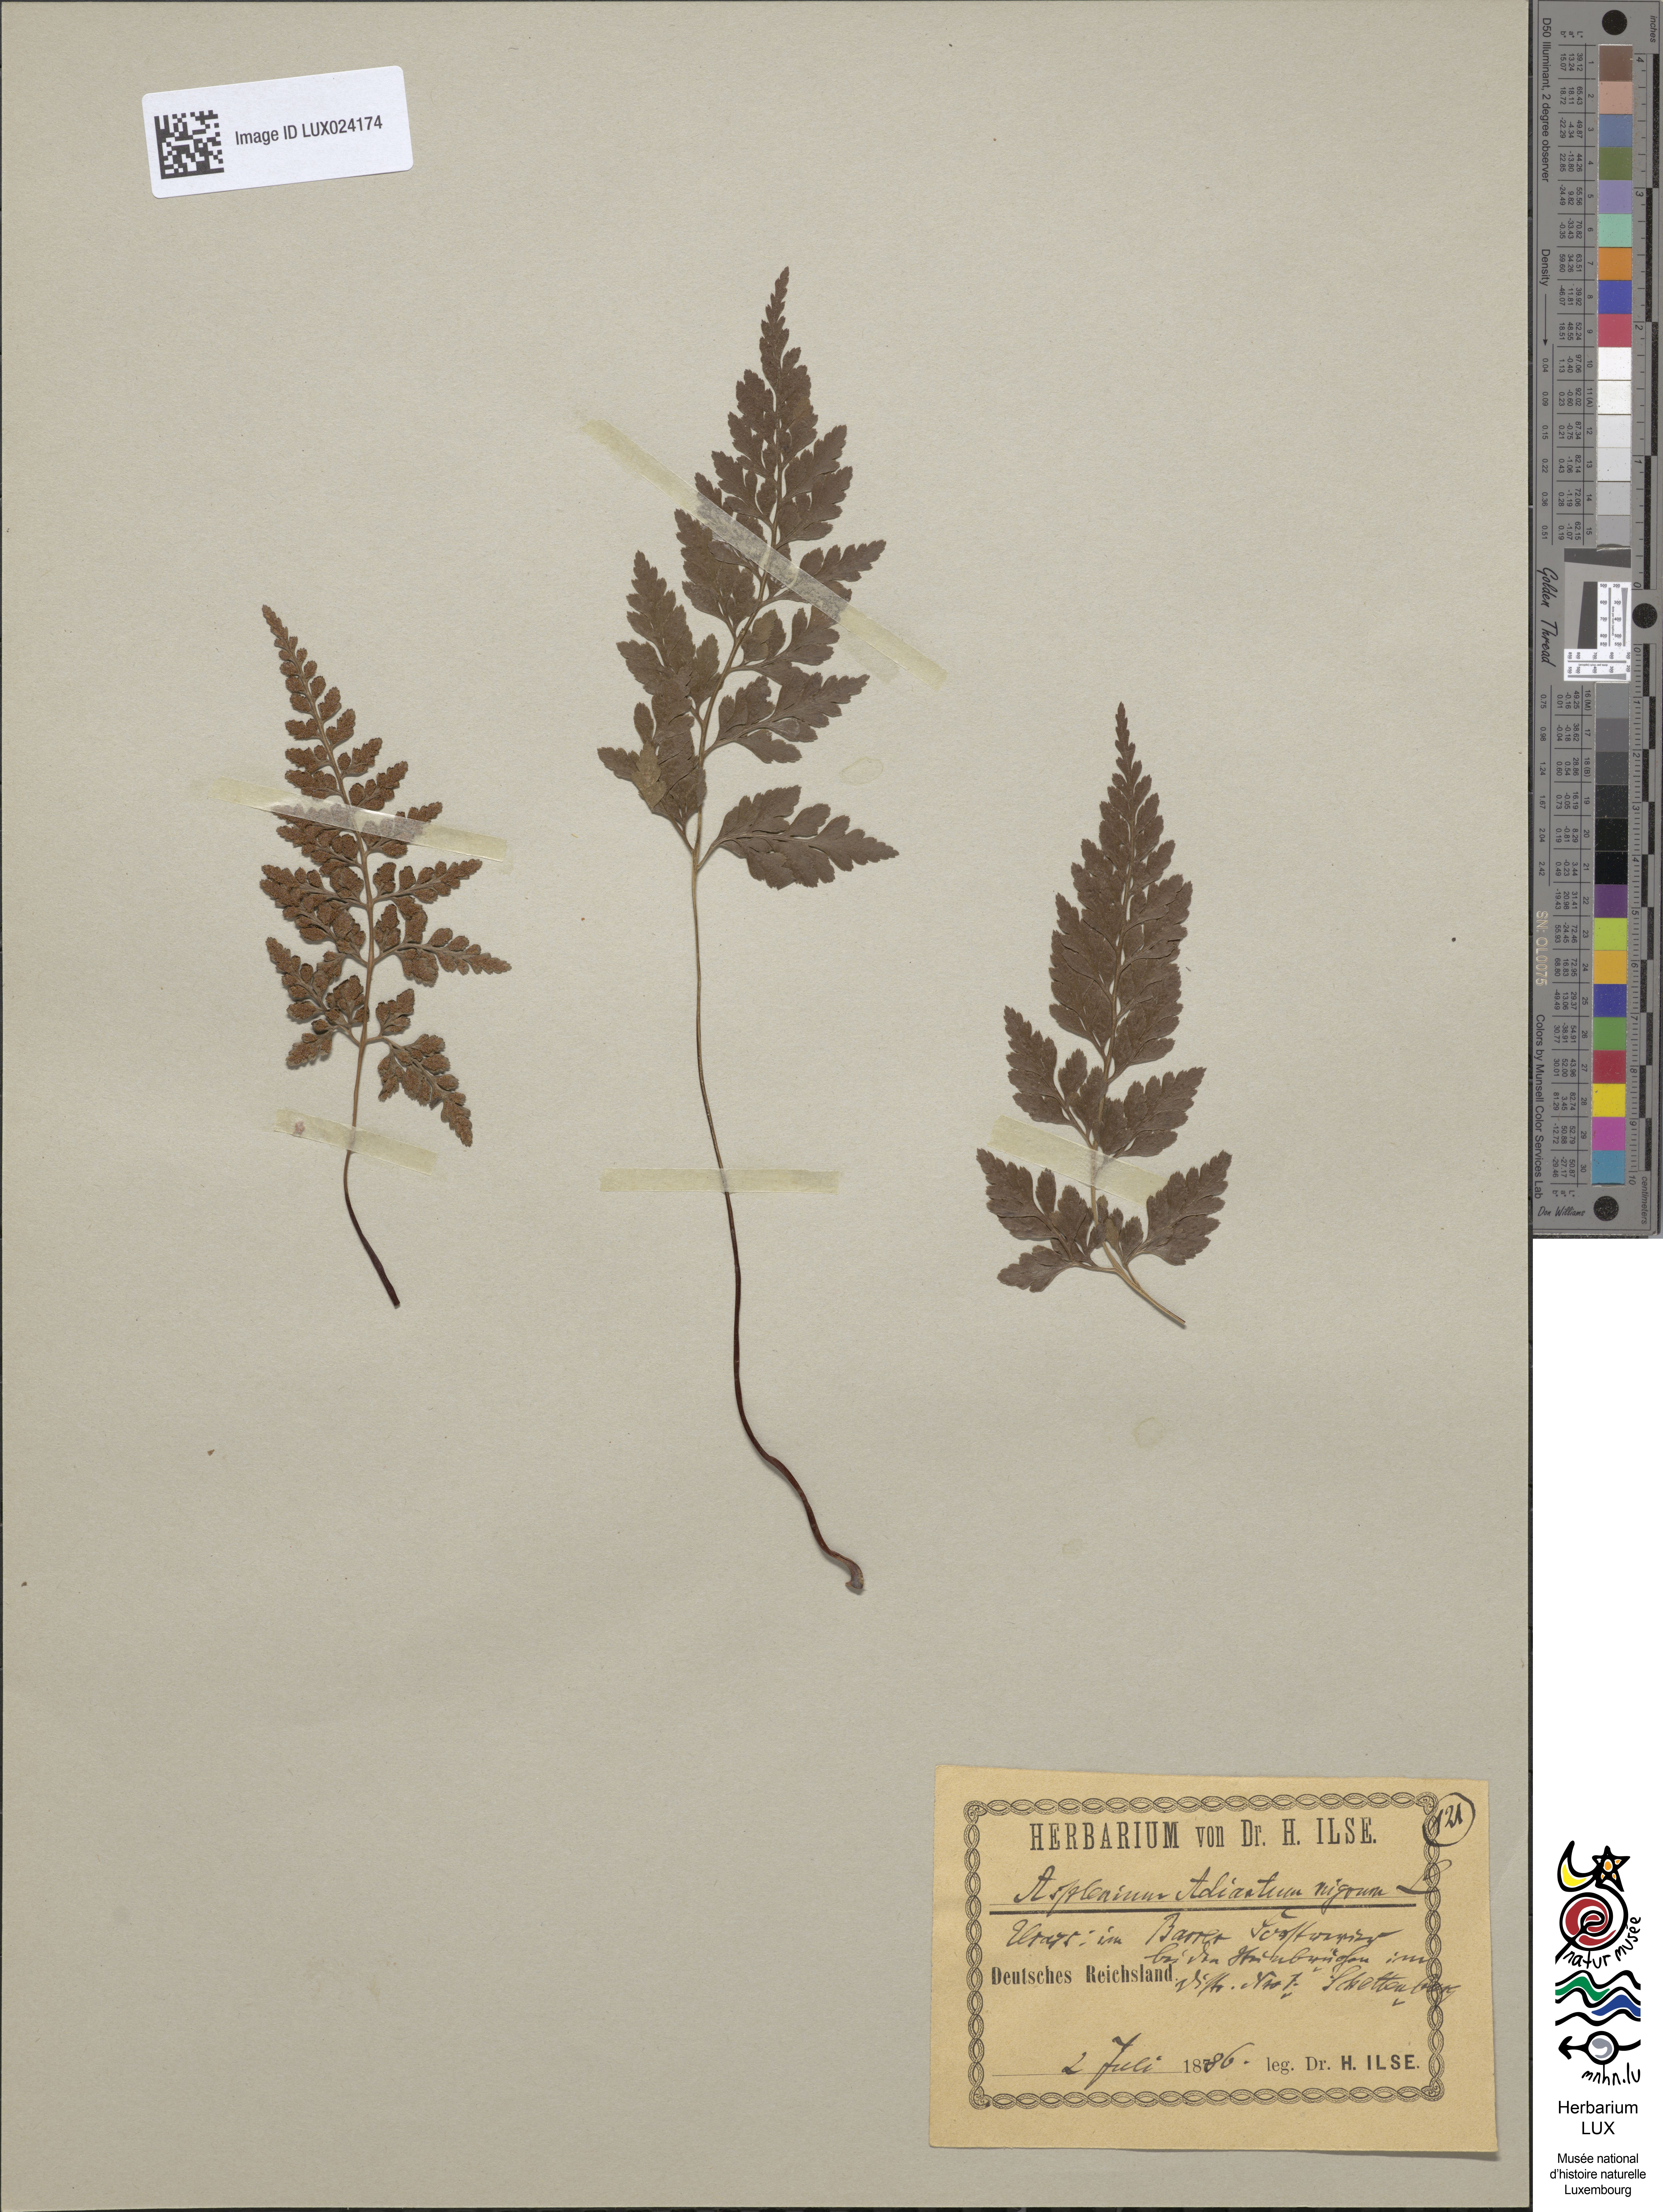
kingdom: Plantae
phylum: Tracheophyta
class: Polypodiopsida
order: Polypodiales
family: Aspleniaceae
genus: Asplenium
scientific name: Asplenium adiantum-nigrum
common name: Black spleenwort
